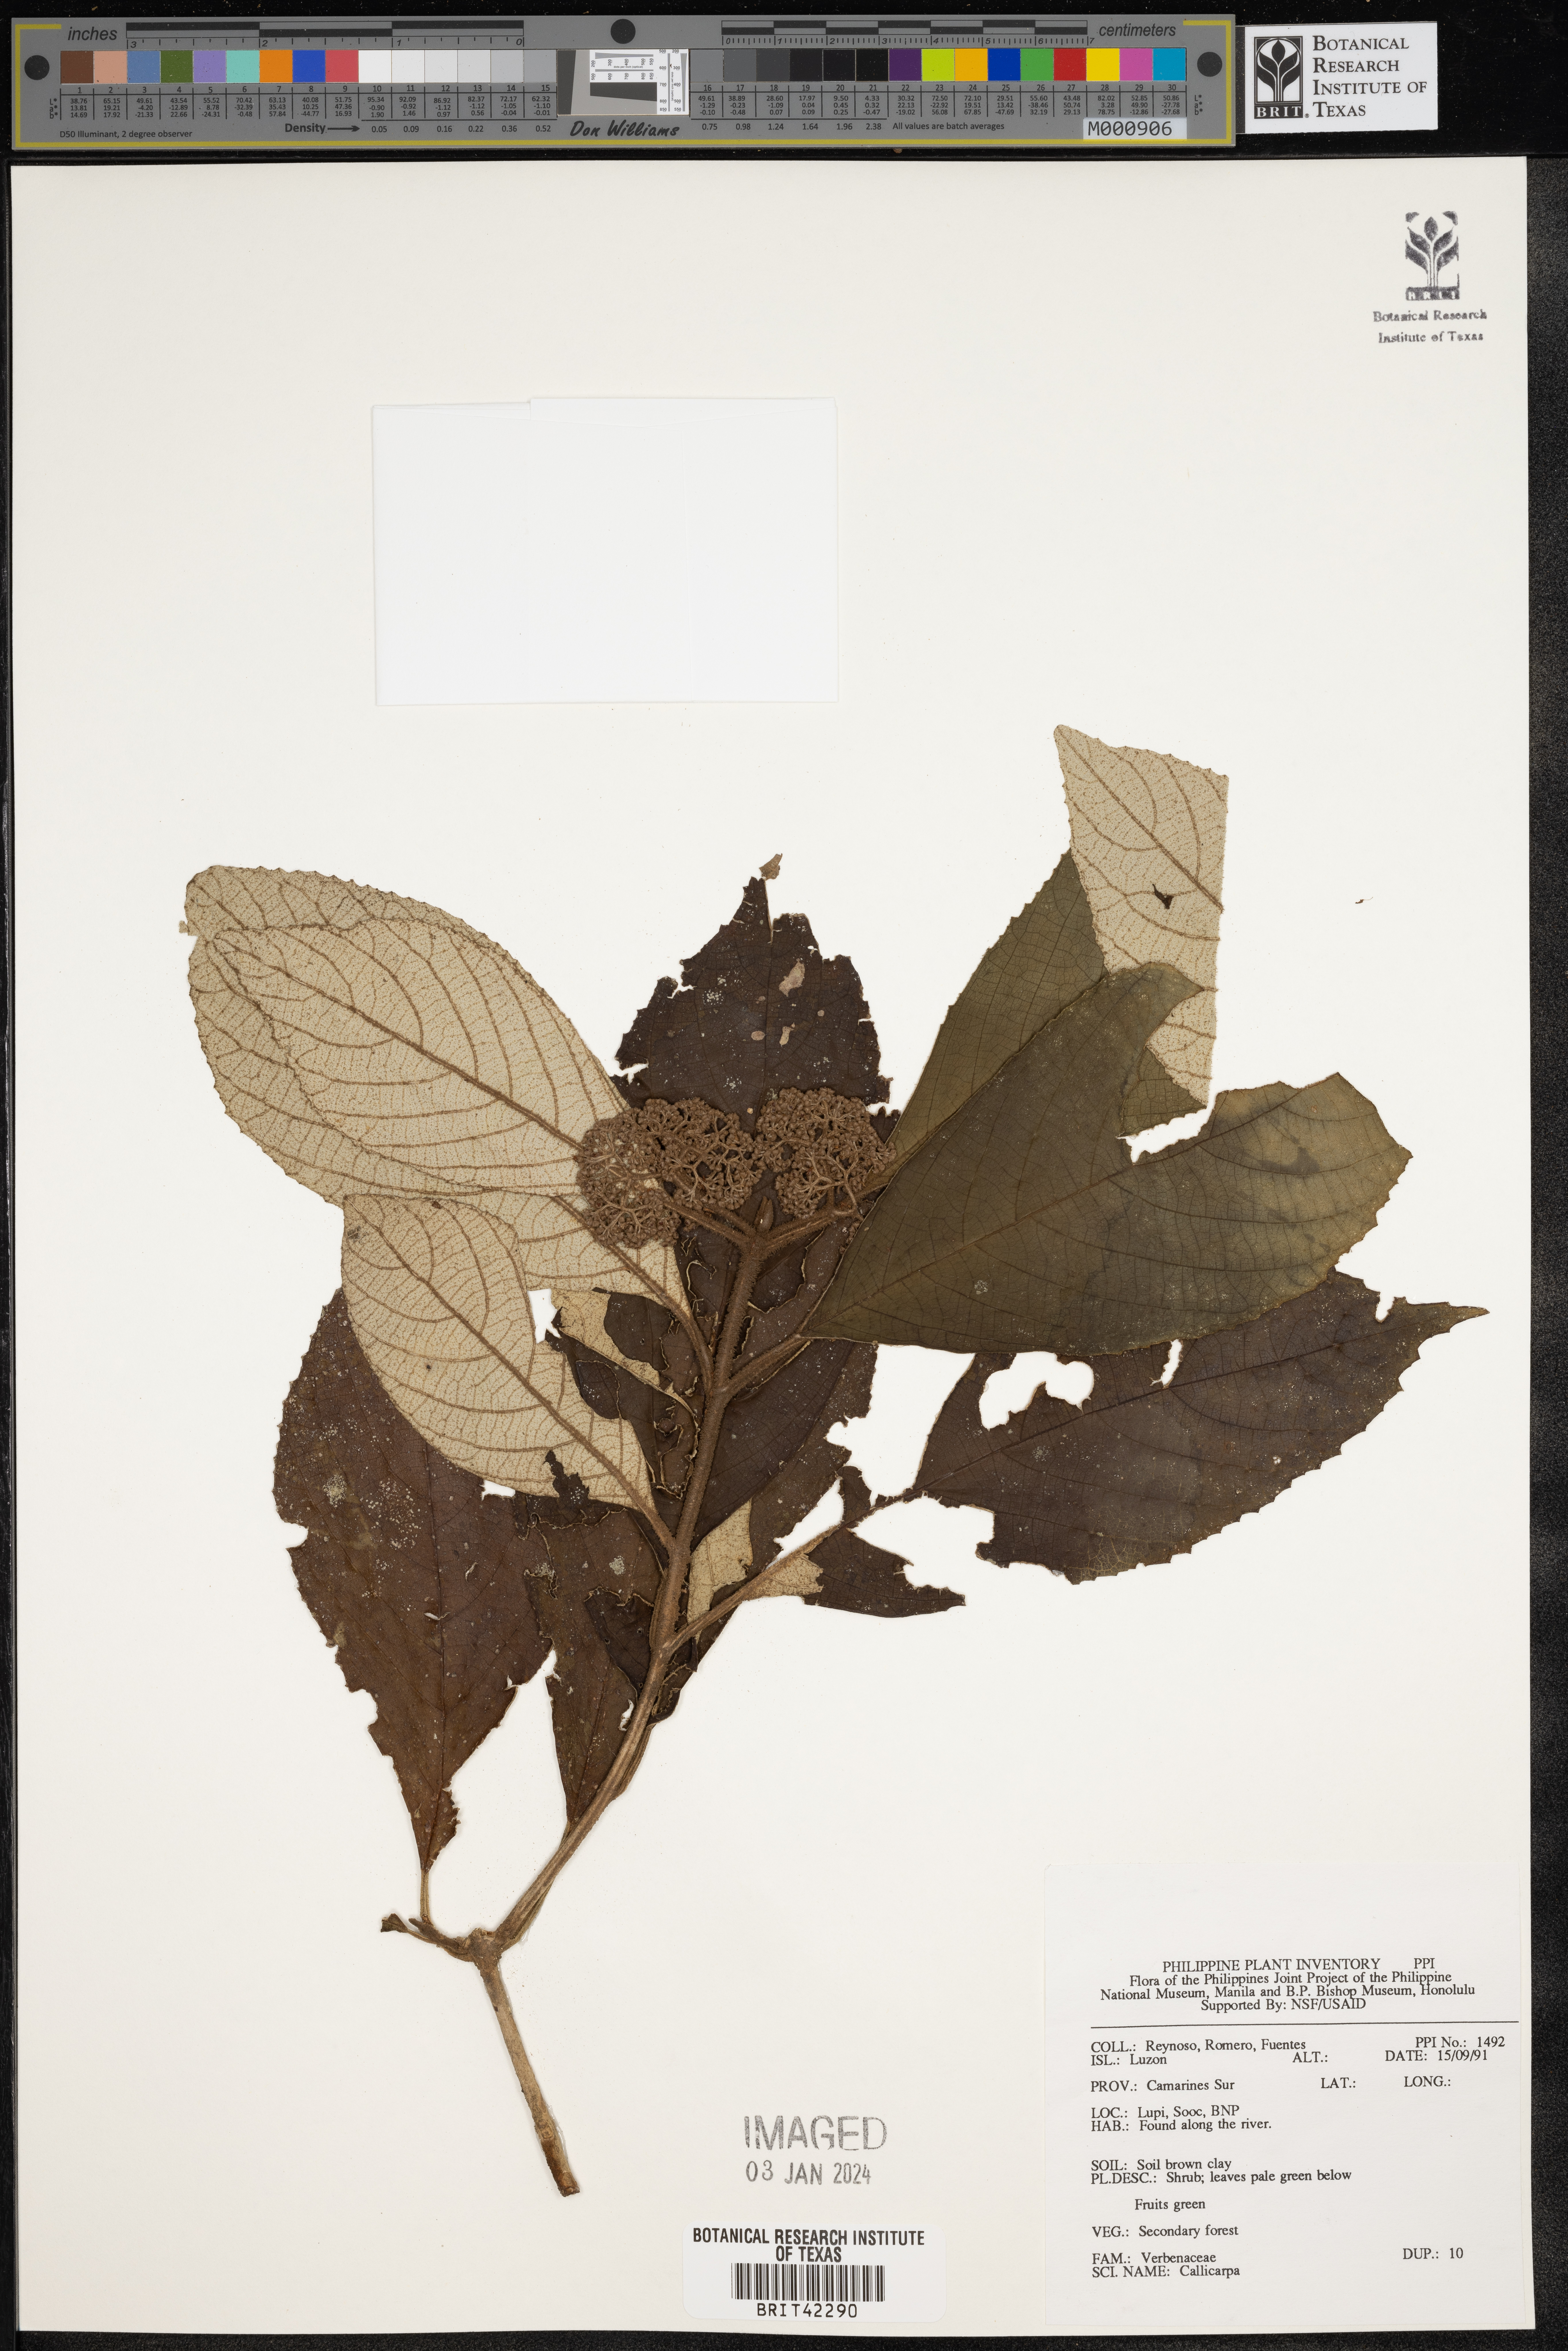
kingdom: Plantae
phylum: Tracheophyta
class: Magnoliopsida
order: Lamiales
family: Lamiaceae
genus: Callicarpa
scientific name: Callicarpa
